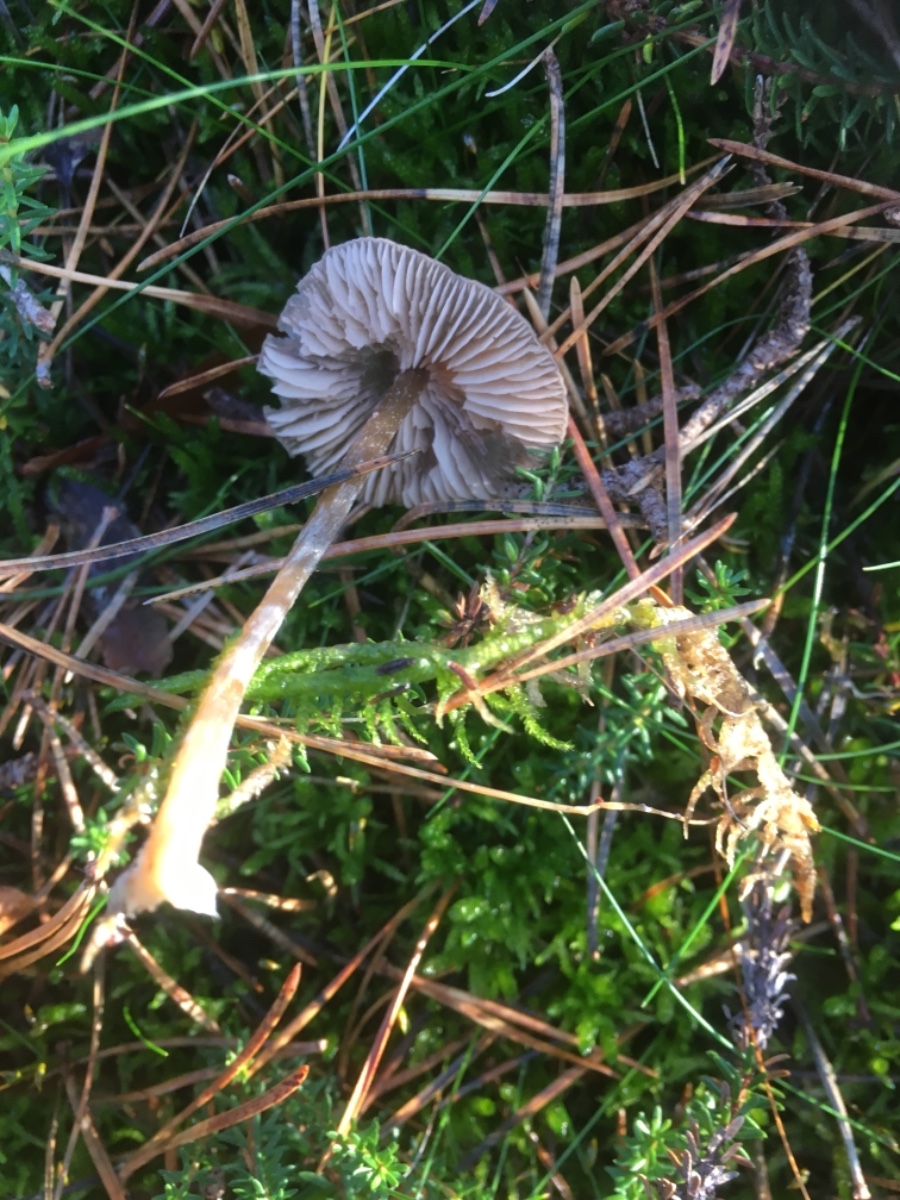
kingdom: Fungi
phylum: Basidiomycota
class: Agaricomycetes
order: Agaricales
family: Entolomataceae
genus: Entoloma
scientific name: Entoloma
